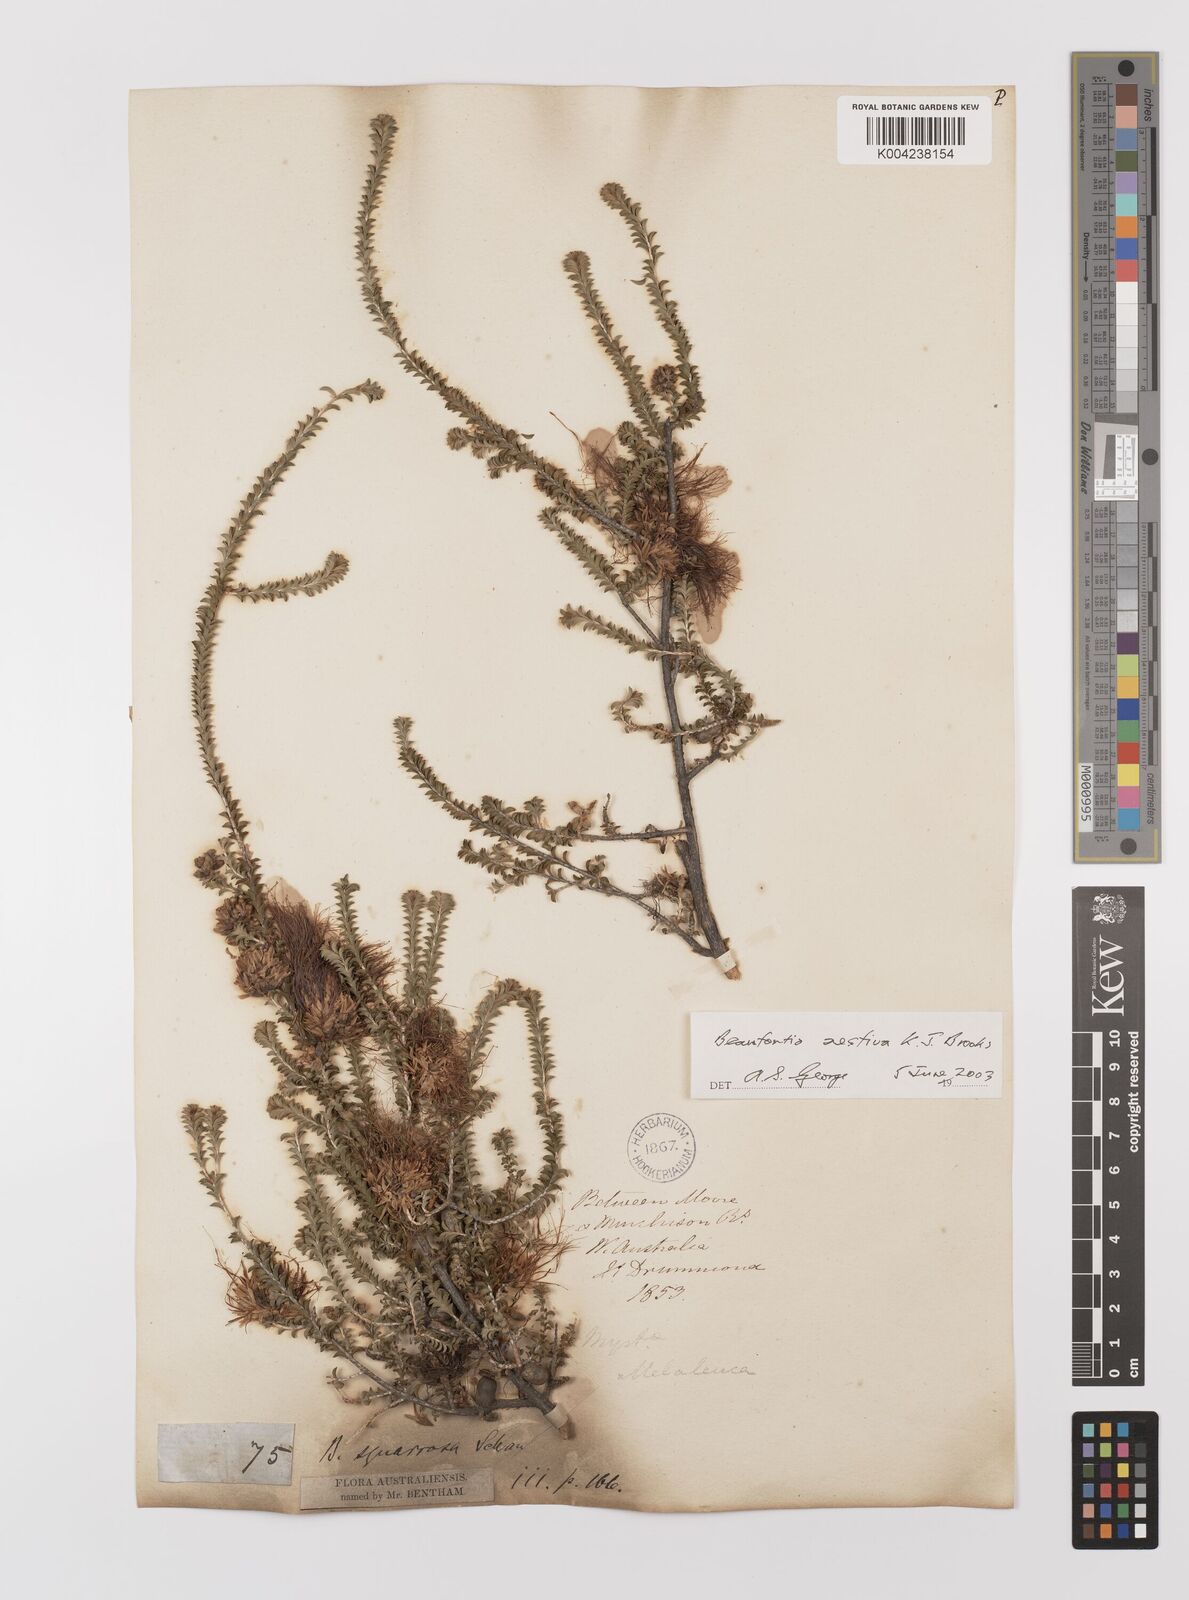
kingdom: Plantae
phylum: Tracheophyta
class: Magnoliopsida
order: Myrtales
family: Myrtaceae
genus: Melaleuca
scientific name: Melaleuca aestiva
